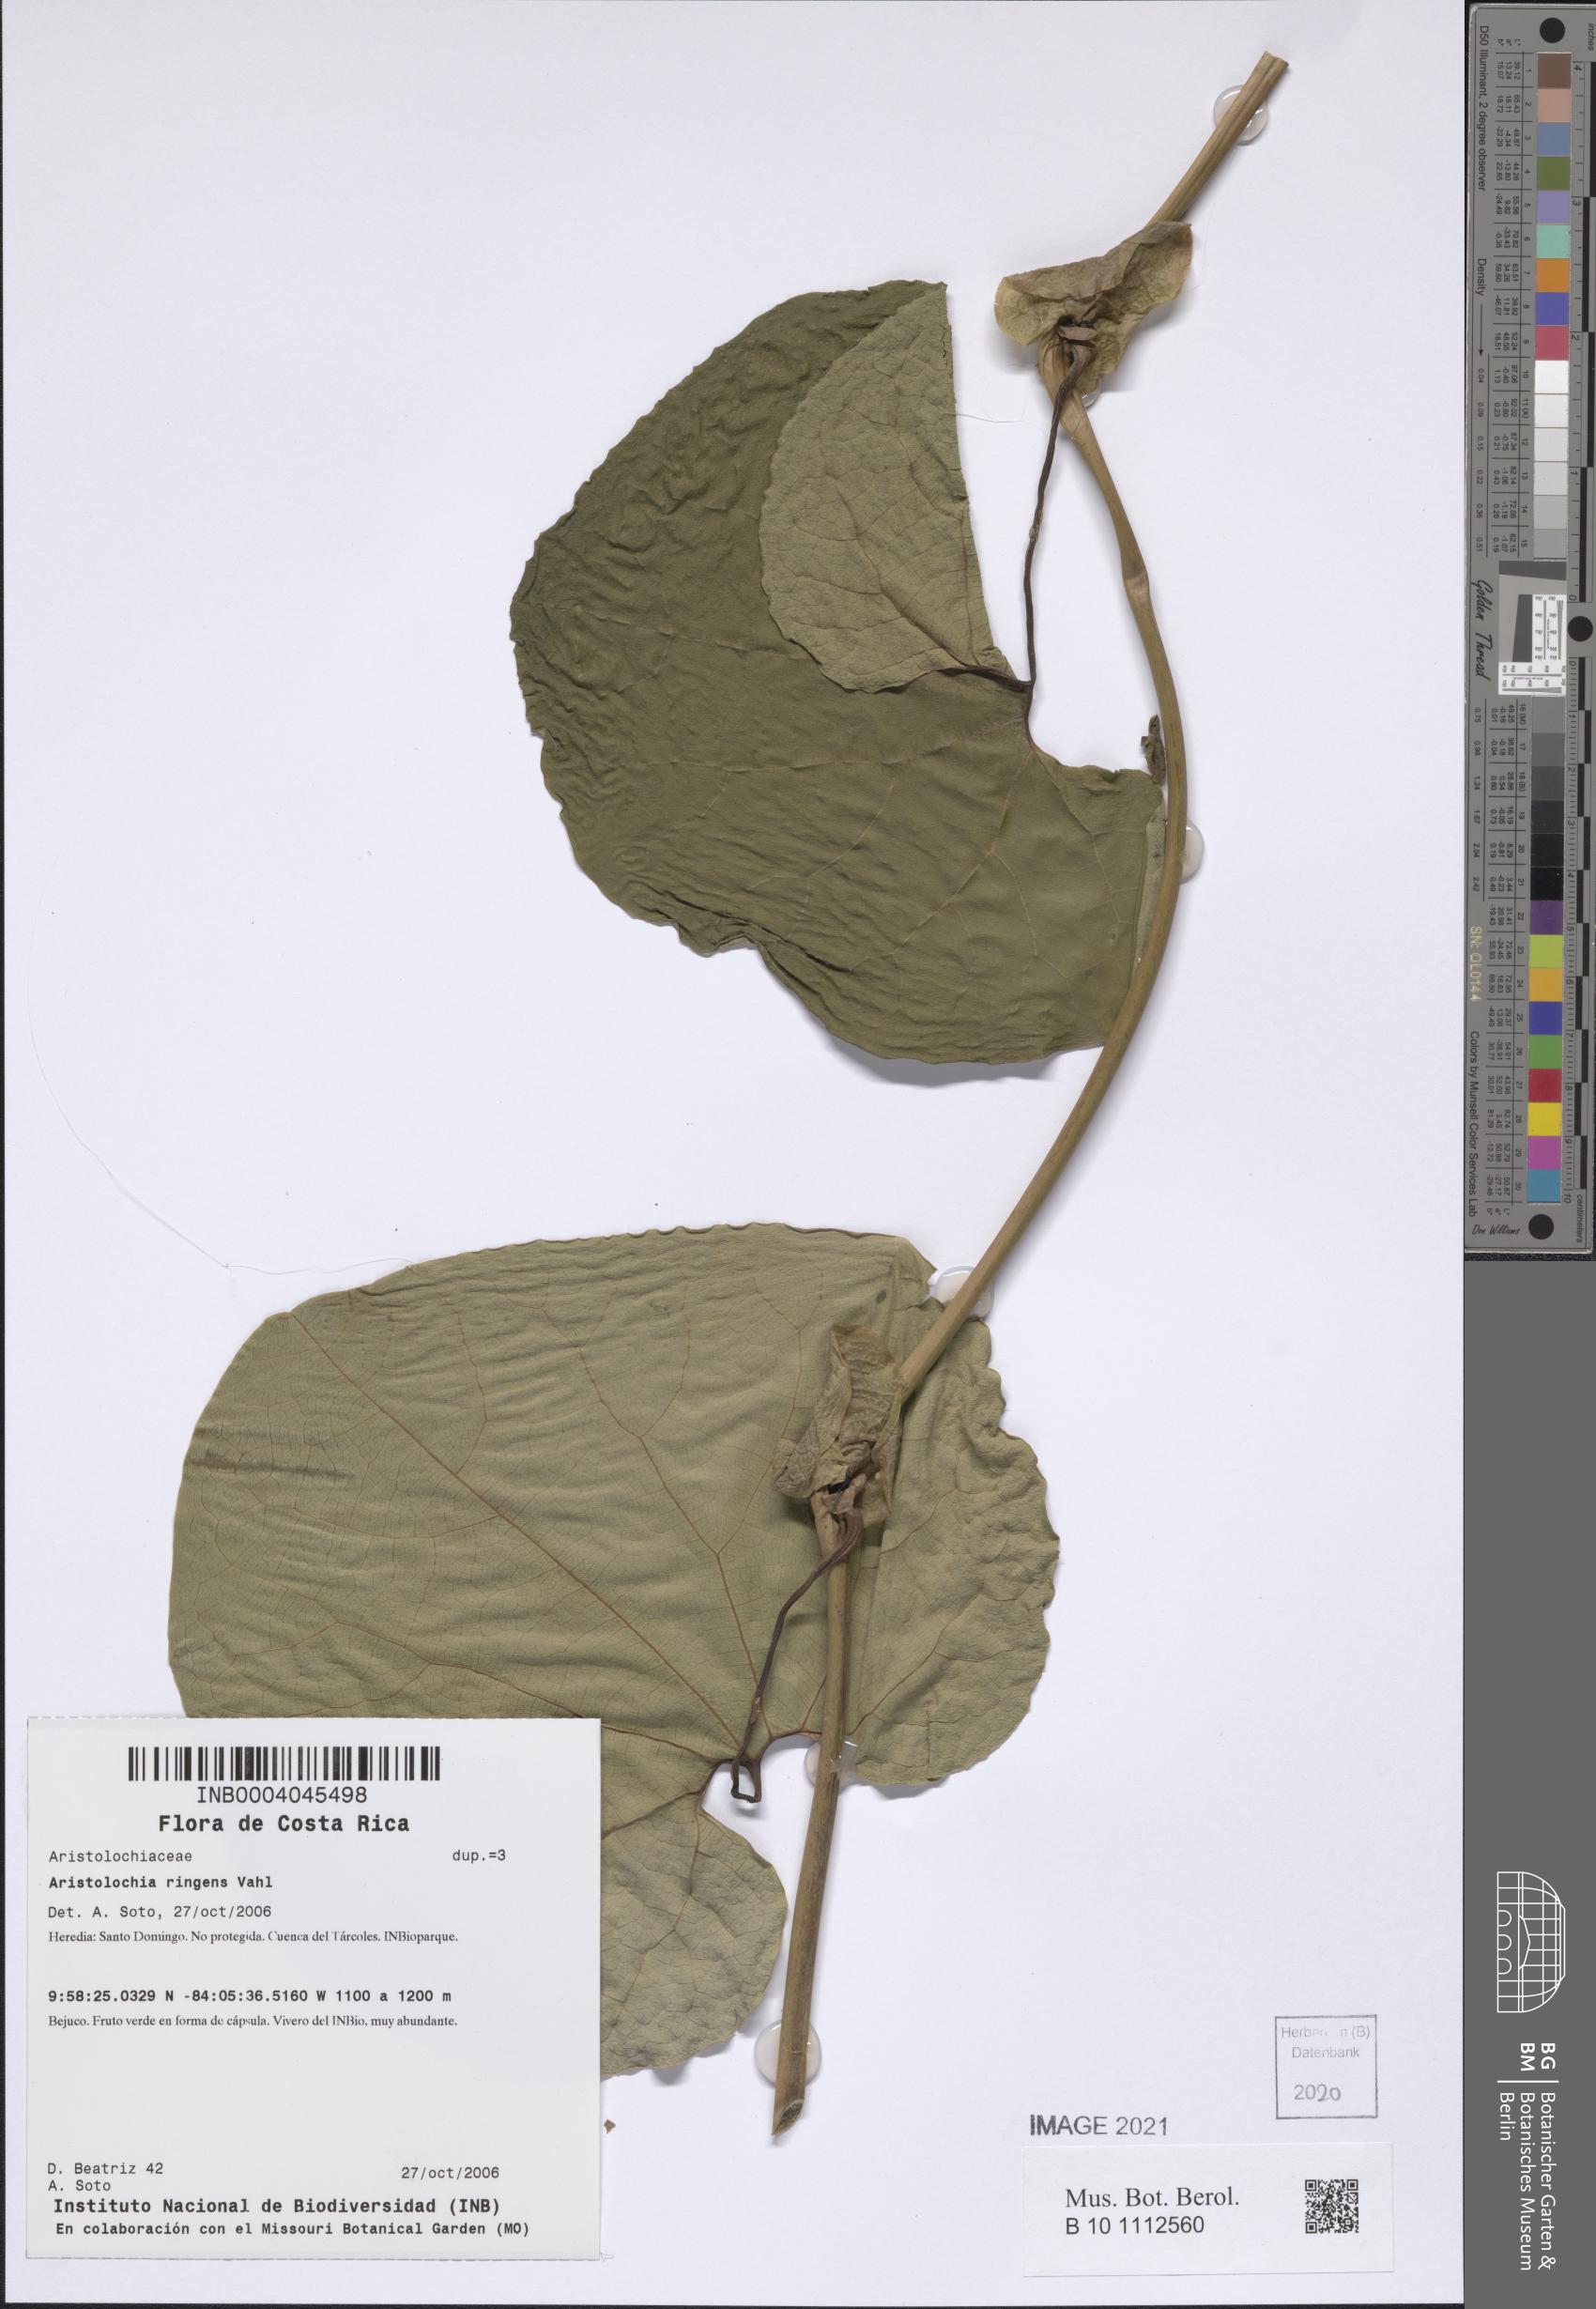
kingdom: Plantae
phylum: Tracheophyta
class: Magnoliopsida
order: Piperales
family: Aristolochiaceae
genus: Aristolochia
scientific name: Aristolochia ringens
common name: Gaping dutchman's pipe
